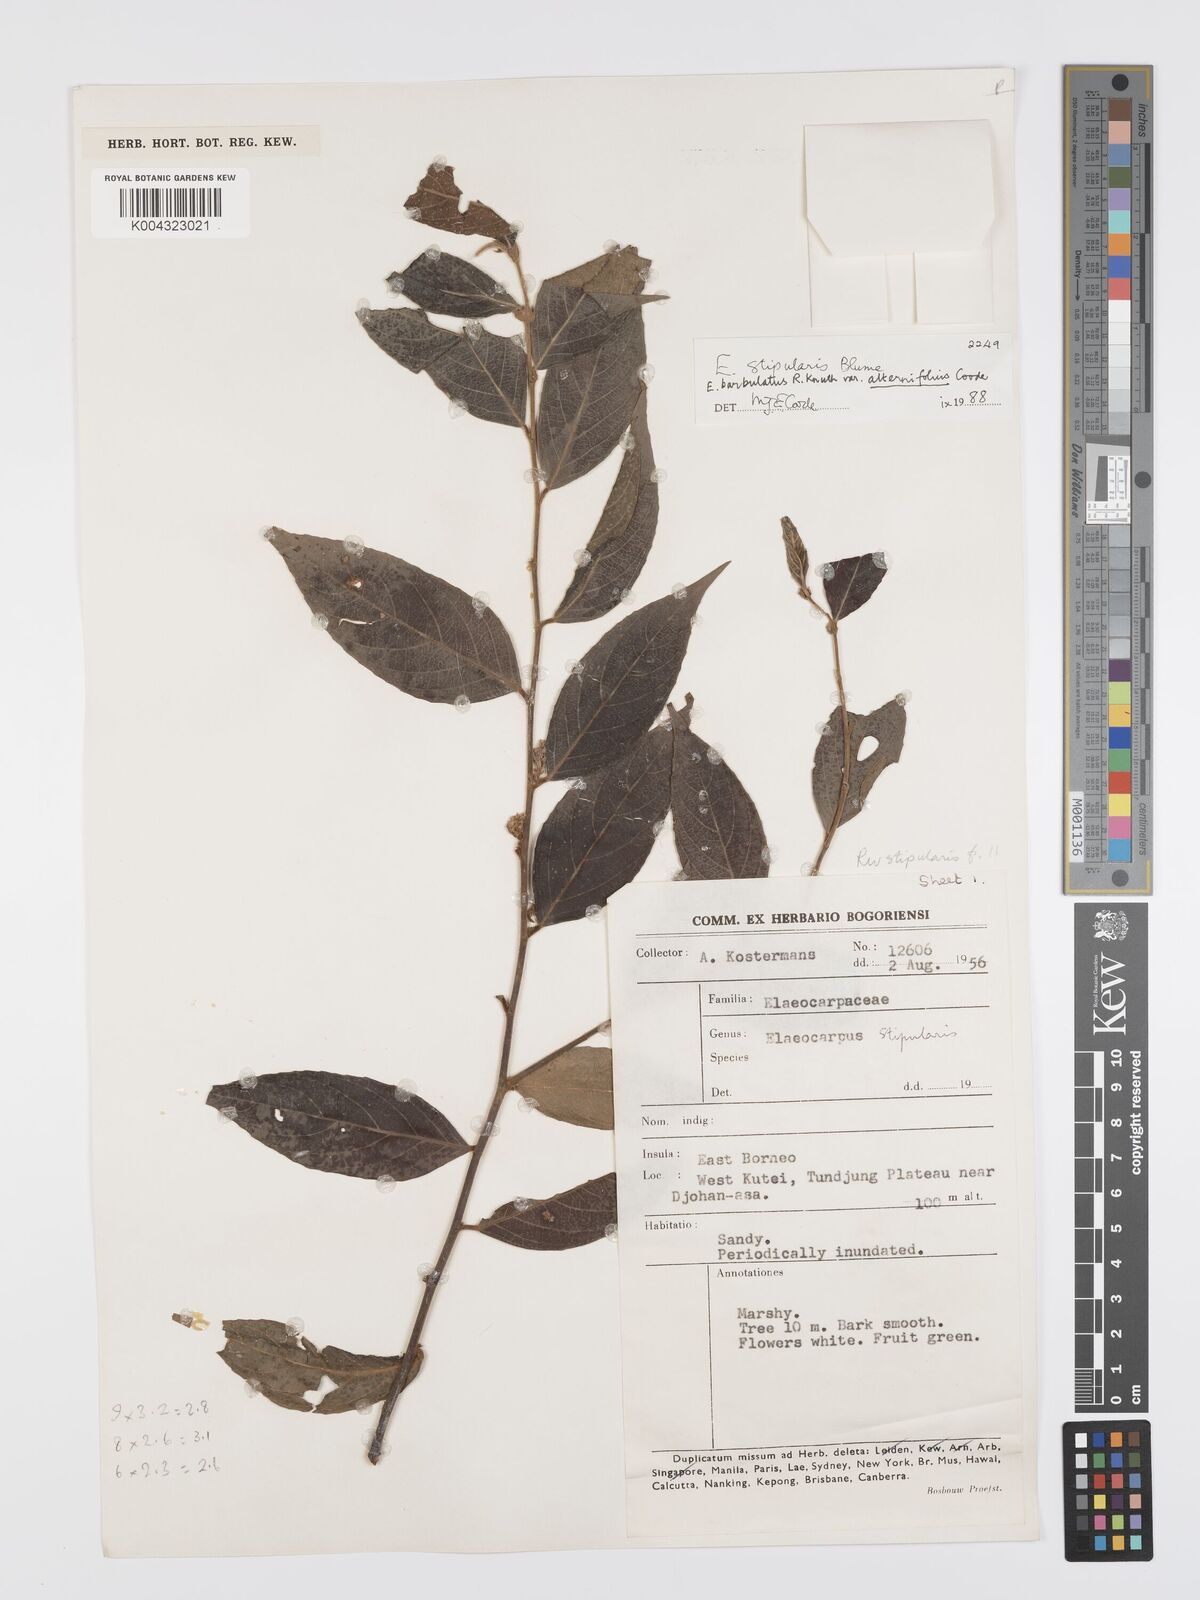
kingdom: Plantae
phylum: Tracheophyta
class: Magnoliopsida
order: Oxalidales
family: Elaeocarpaceae
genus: Elaeocarpus
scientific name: Elaeocarpus barbulatus
